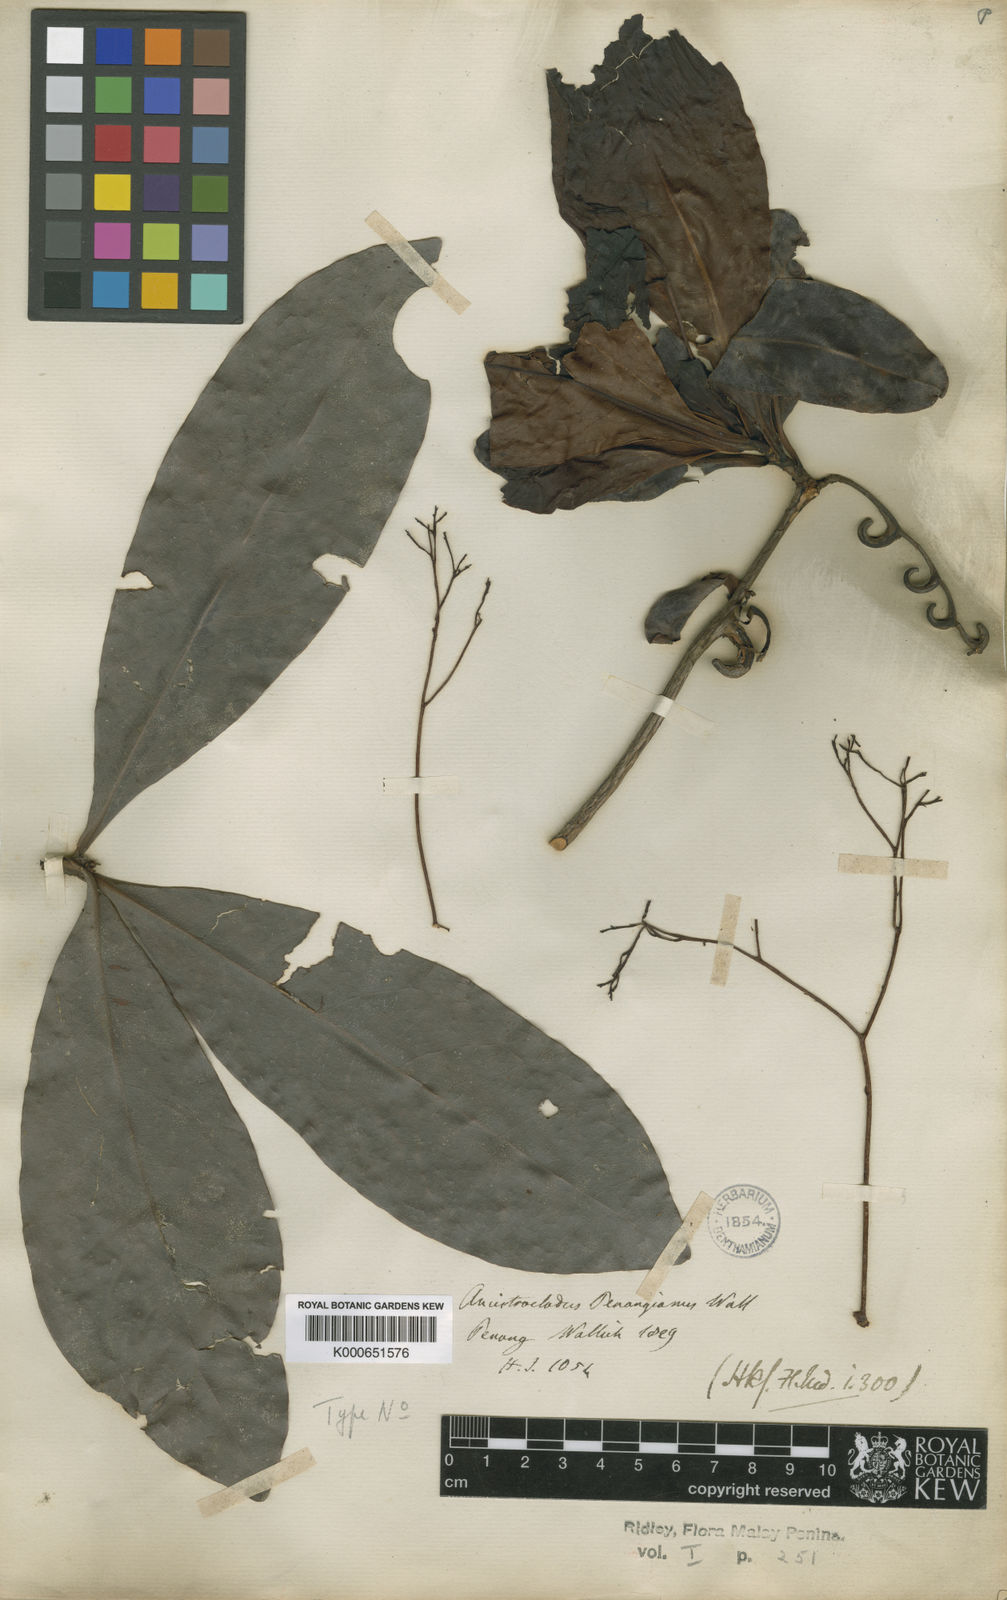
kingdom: Plantae
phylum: Tracheophyta
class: Magnoliopsida
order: Caryophyllales
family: Ancistrocladaceae
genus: Ancistrocladus
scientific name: Ancistrocladus tectorius
